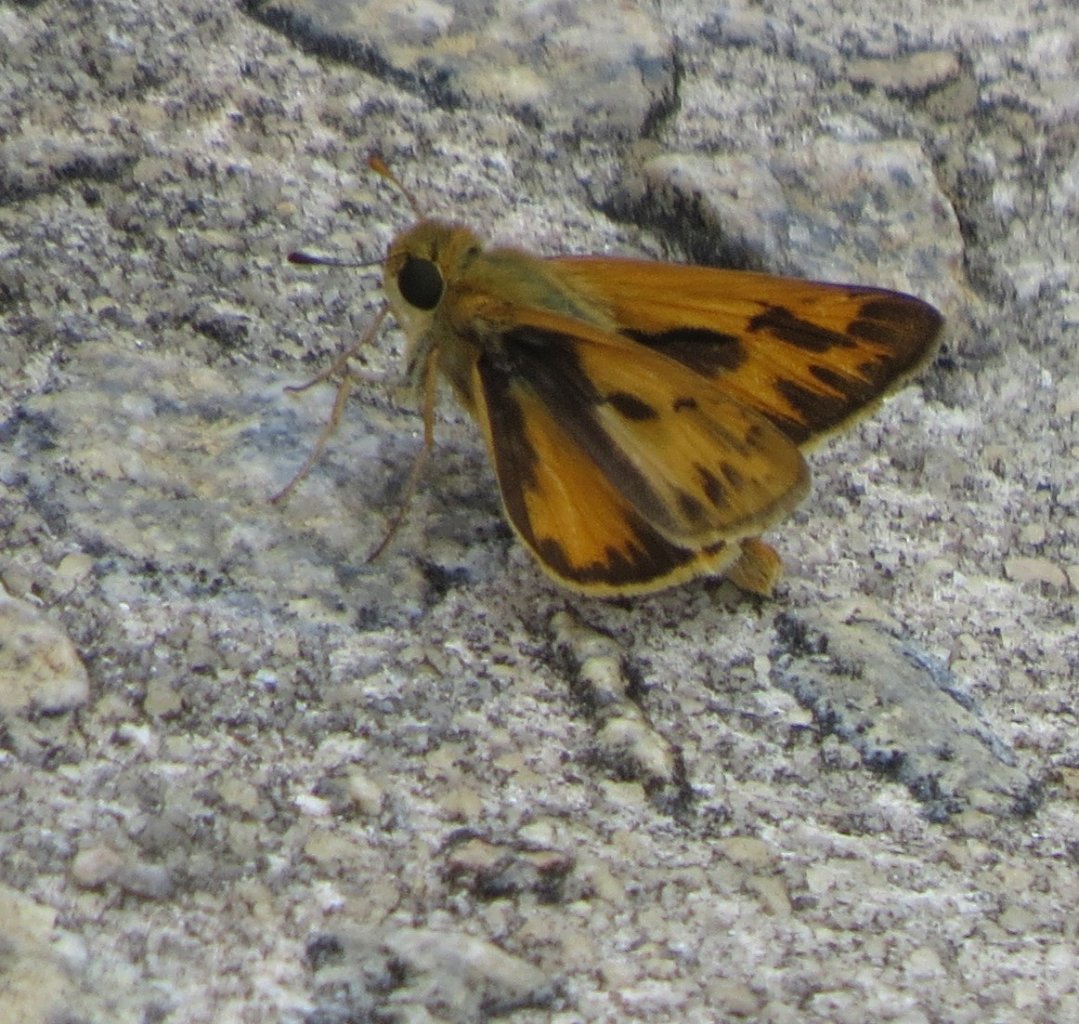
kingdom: Animalia
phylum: Arthropoda
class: Insecta
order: Lepidoptera
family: Hesperiidae
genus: Atalopedes
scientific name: Atalopedes campestris
